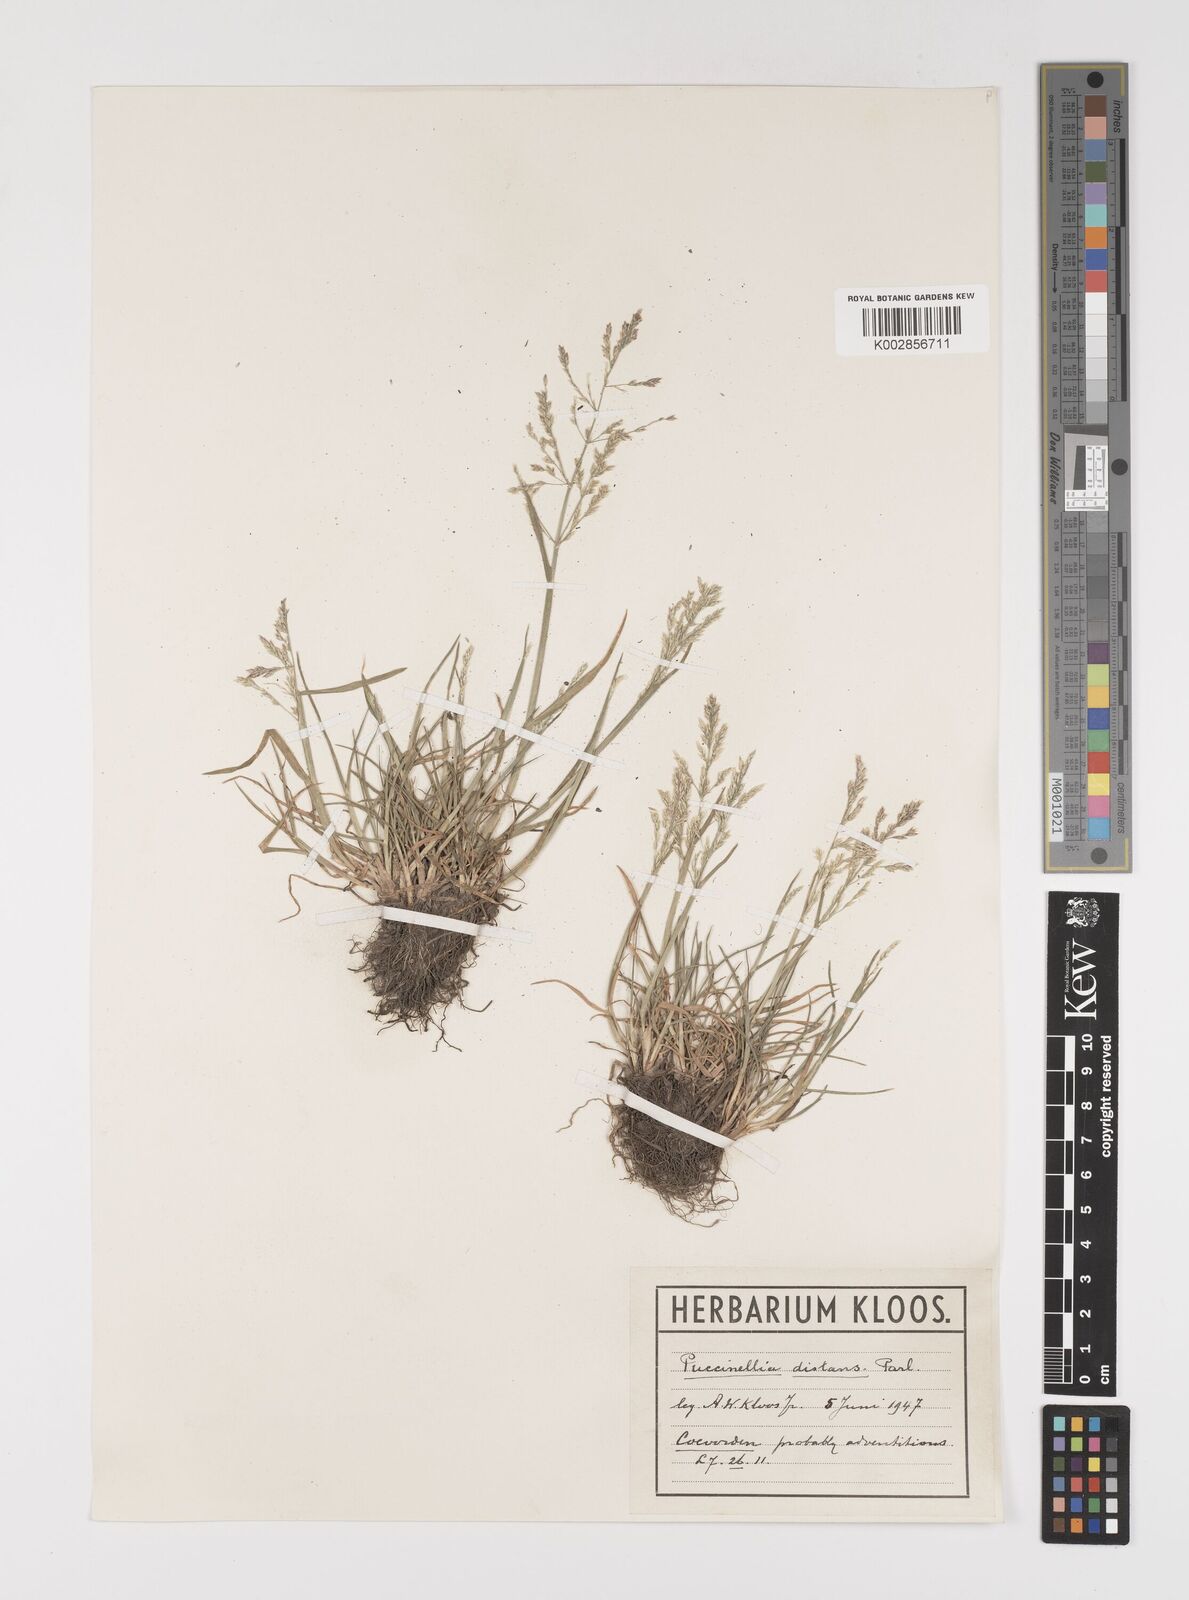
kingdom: Plantae
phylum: Tracheophyta
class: Liliopsida
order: Poales
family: Poaceae
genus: Puccinellia
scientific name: Puccinellia distans
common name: Weeping alkaligrass
